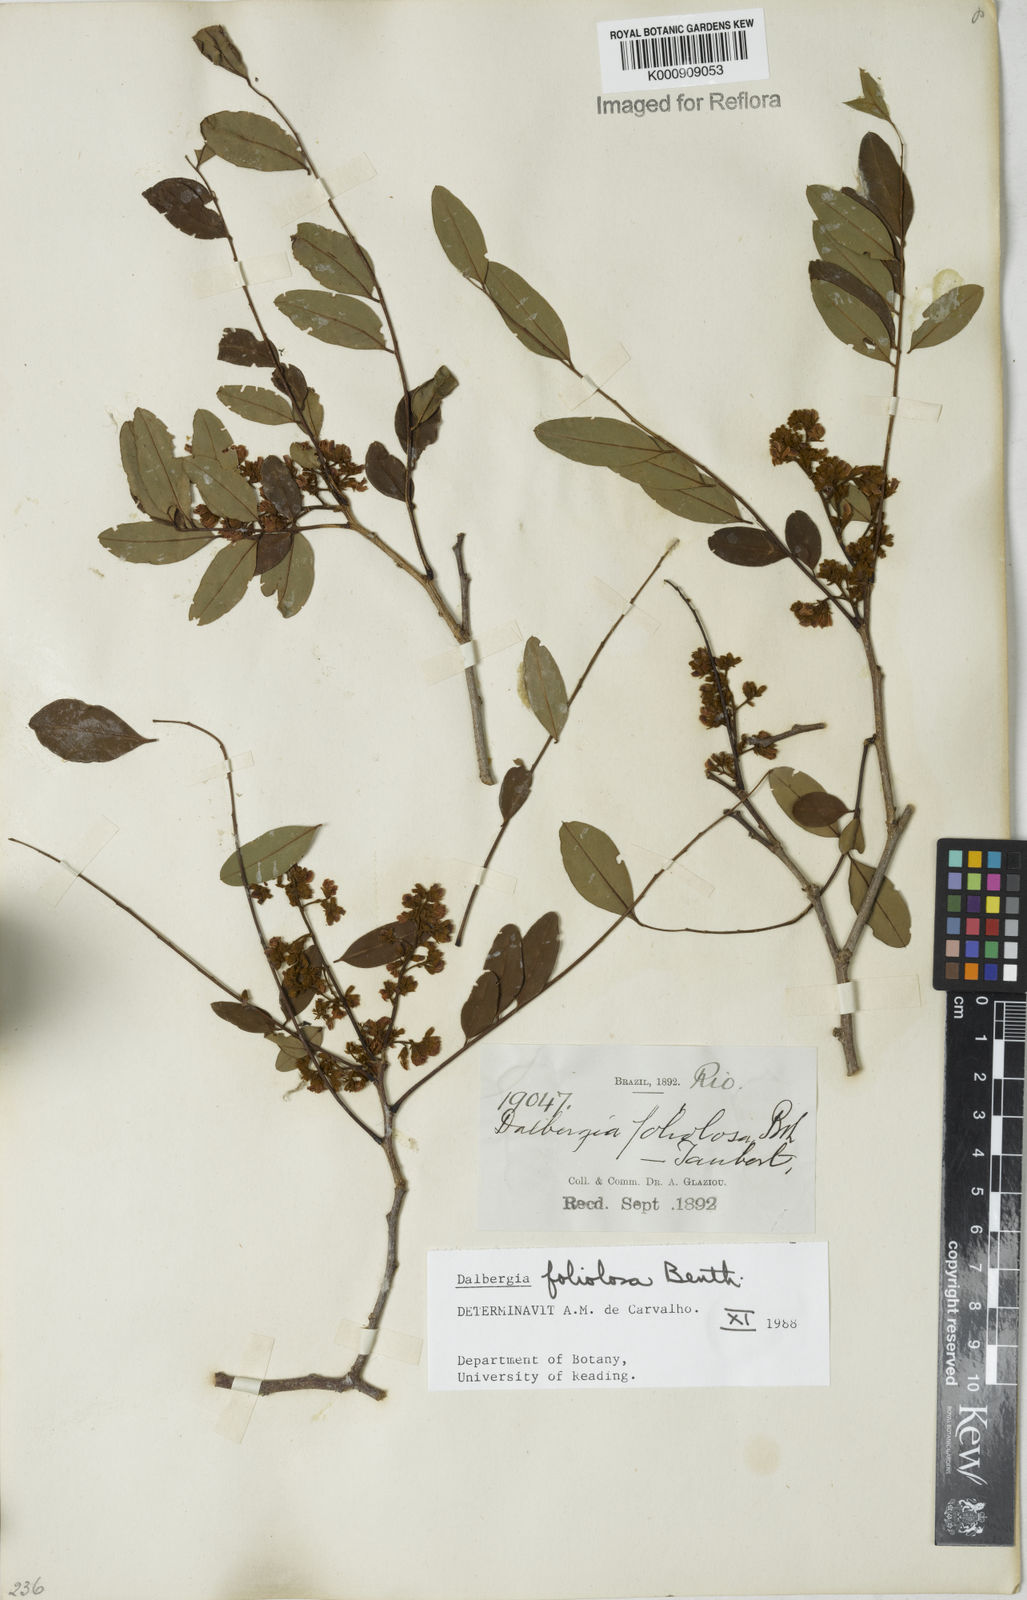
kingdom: Plantae
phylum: Tracheophyta
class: Magnoliopsida
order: Fabales
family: Fabaceae
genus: Dalbergia
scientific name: Dalbergia foliolosa
